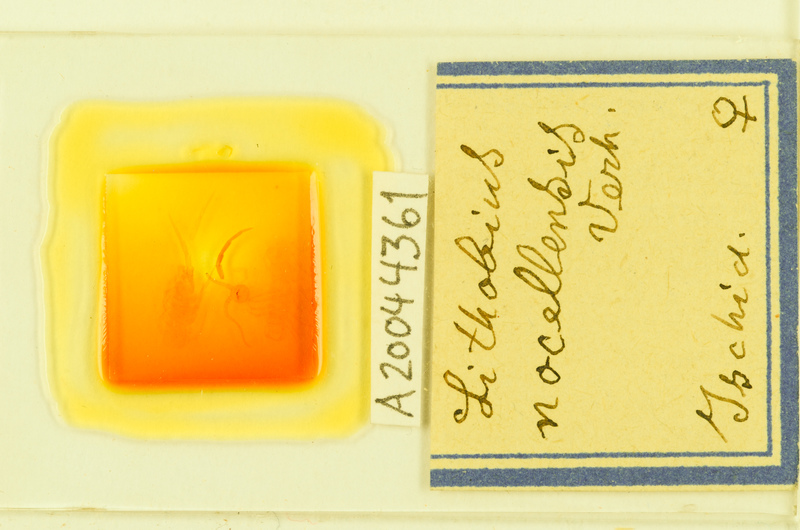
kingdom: Animalia
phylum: Arthropoda
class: Chilopoda
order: Lithobiomorpha
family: Lithobiidae
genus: Lithobius
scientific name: Lithobius nocellensis
